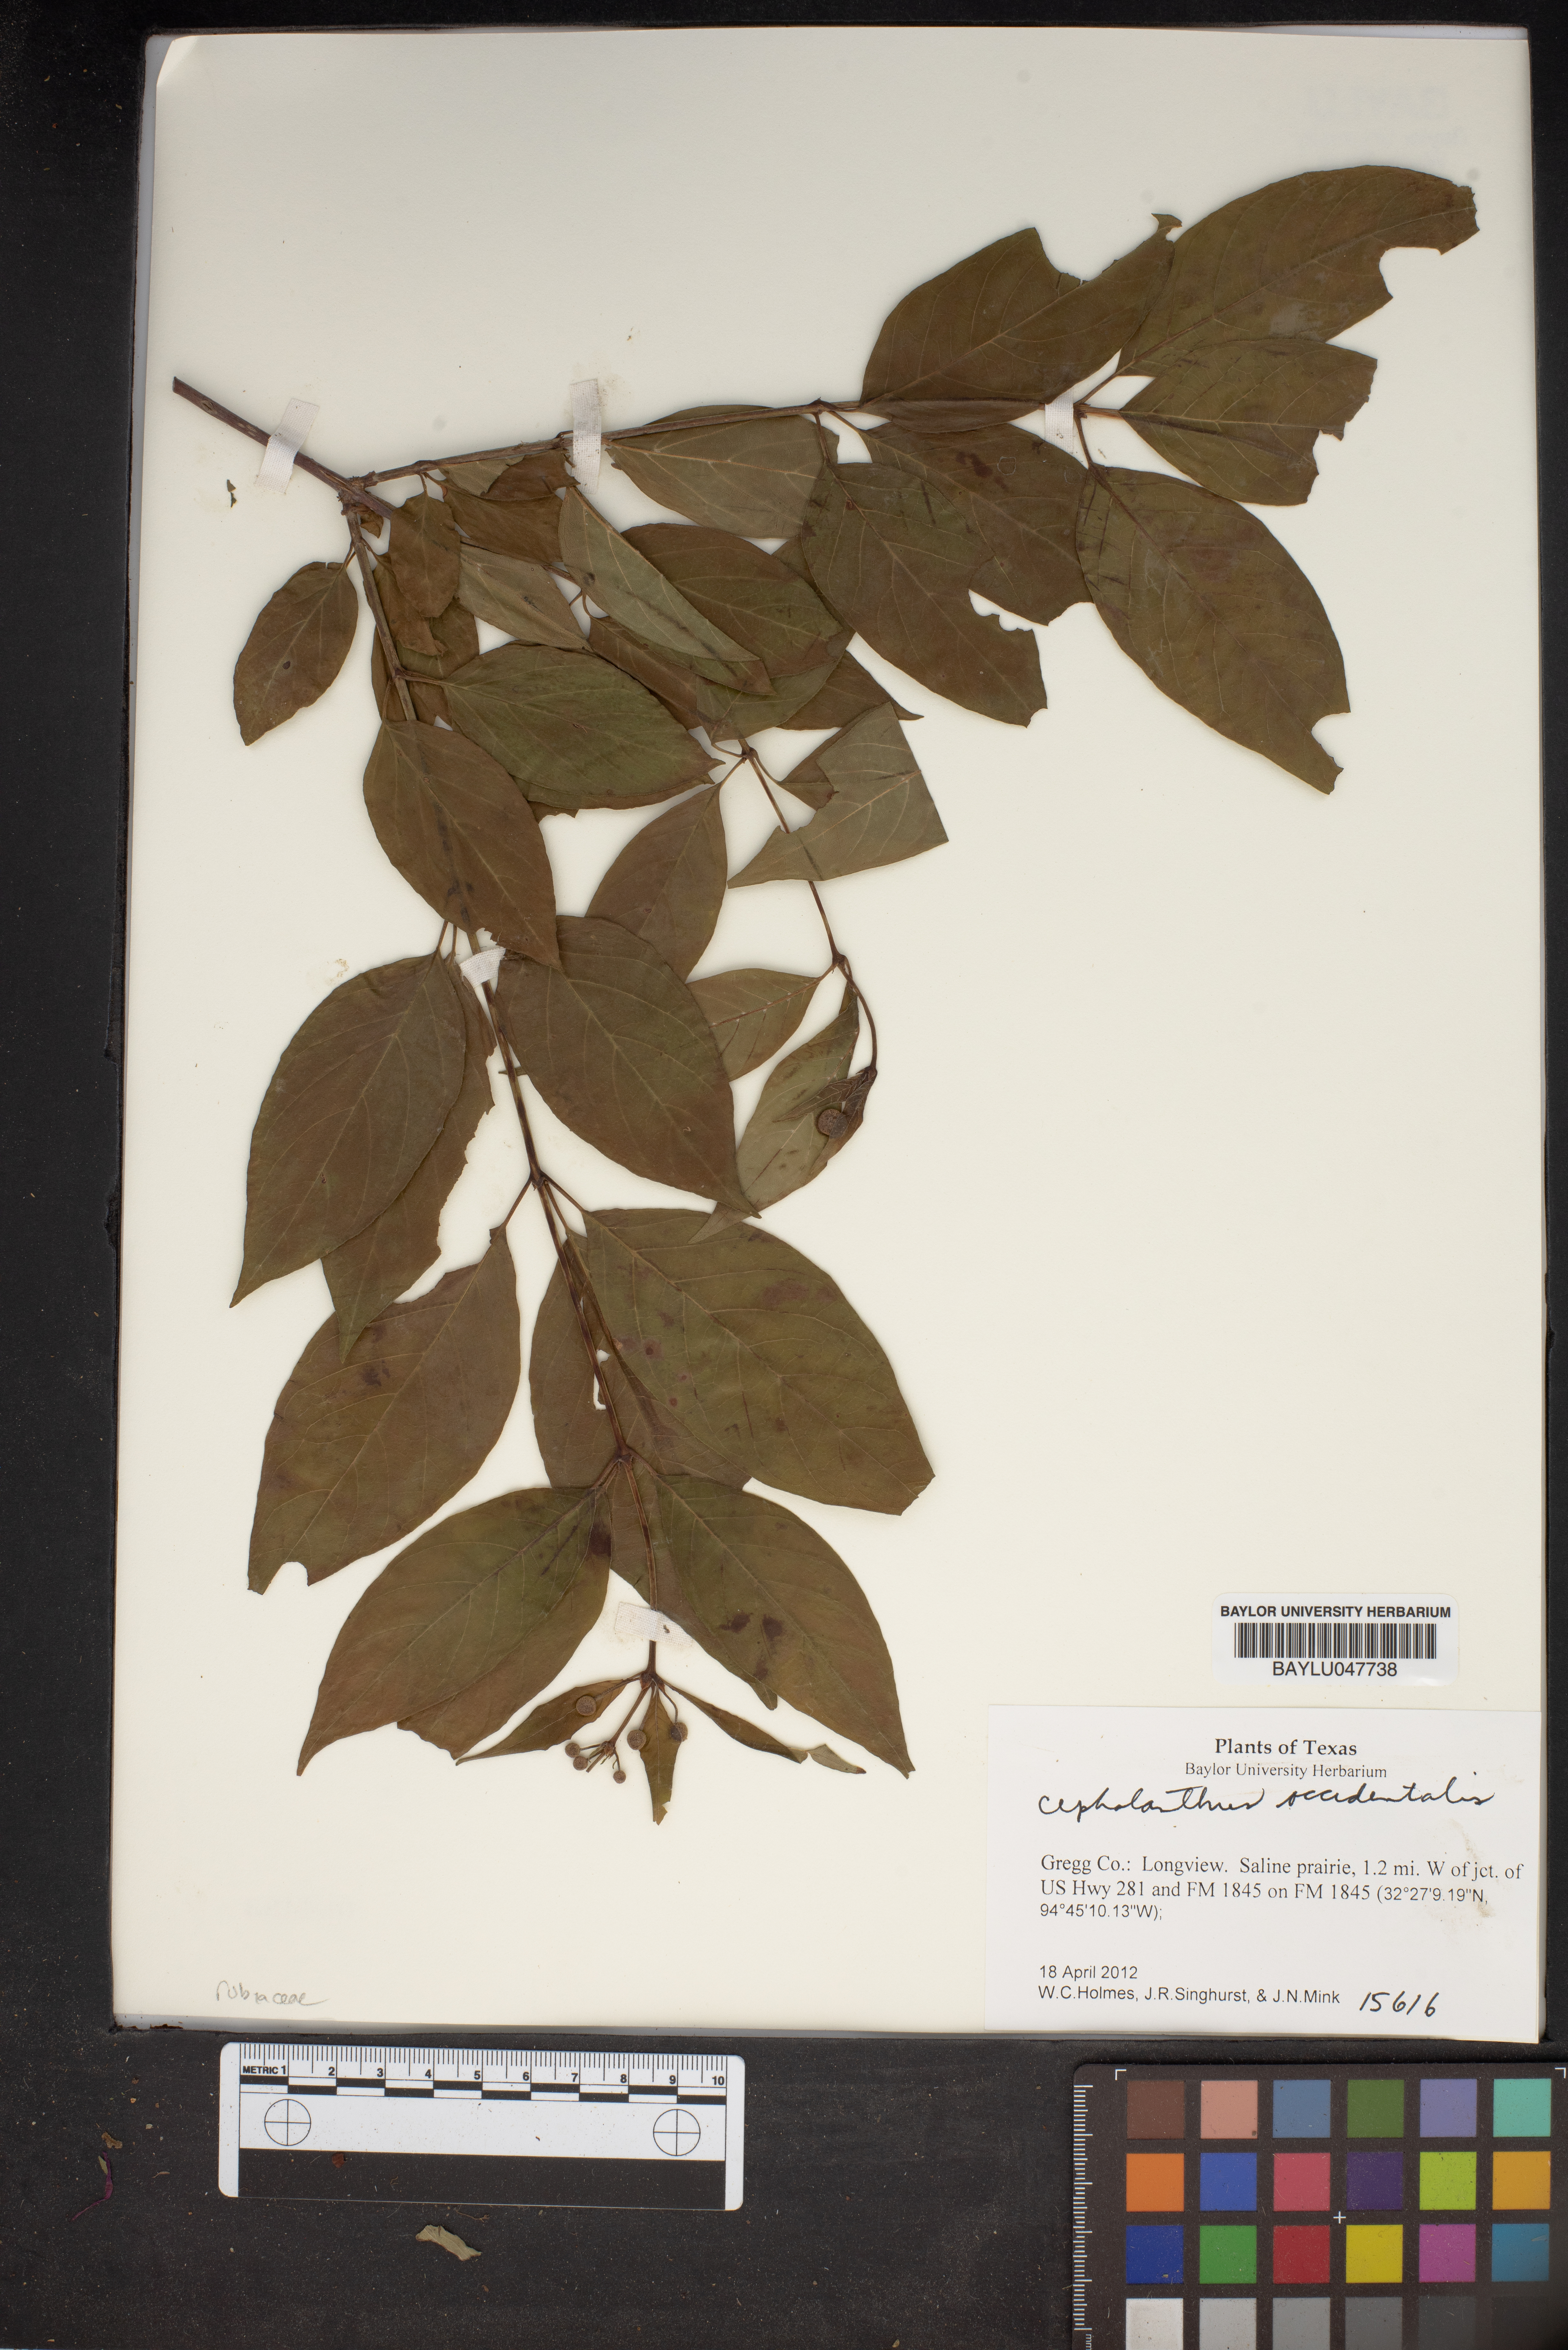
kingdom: Plantae
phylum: Tracheophyta
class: Magnoliopsida
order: Gentianales
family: Rubiaceae
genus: Cephalanthus
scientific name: Cephalanthus occidentalis
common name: Button-willow
